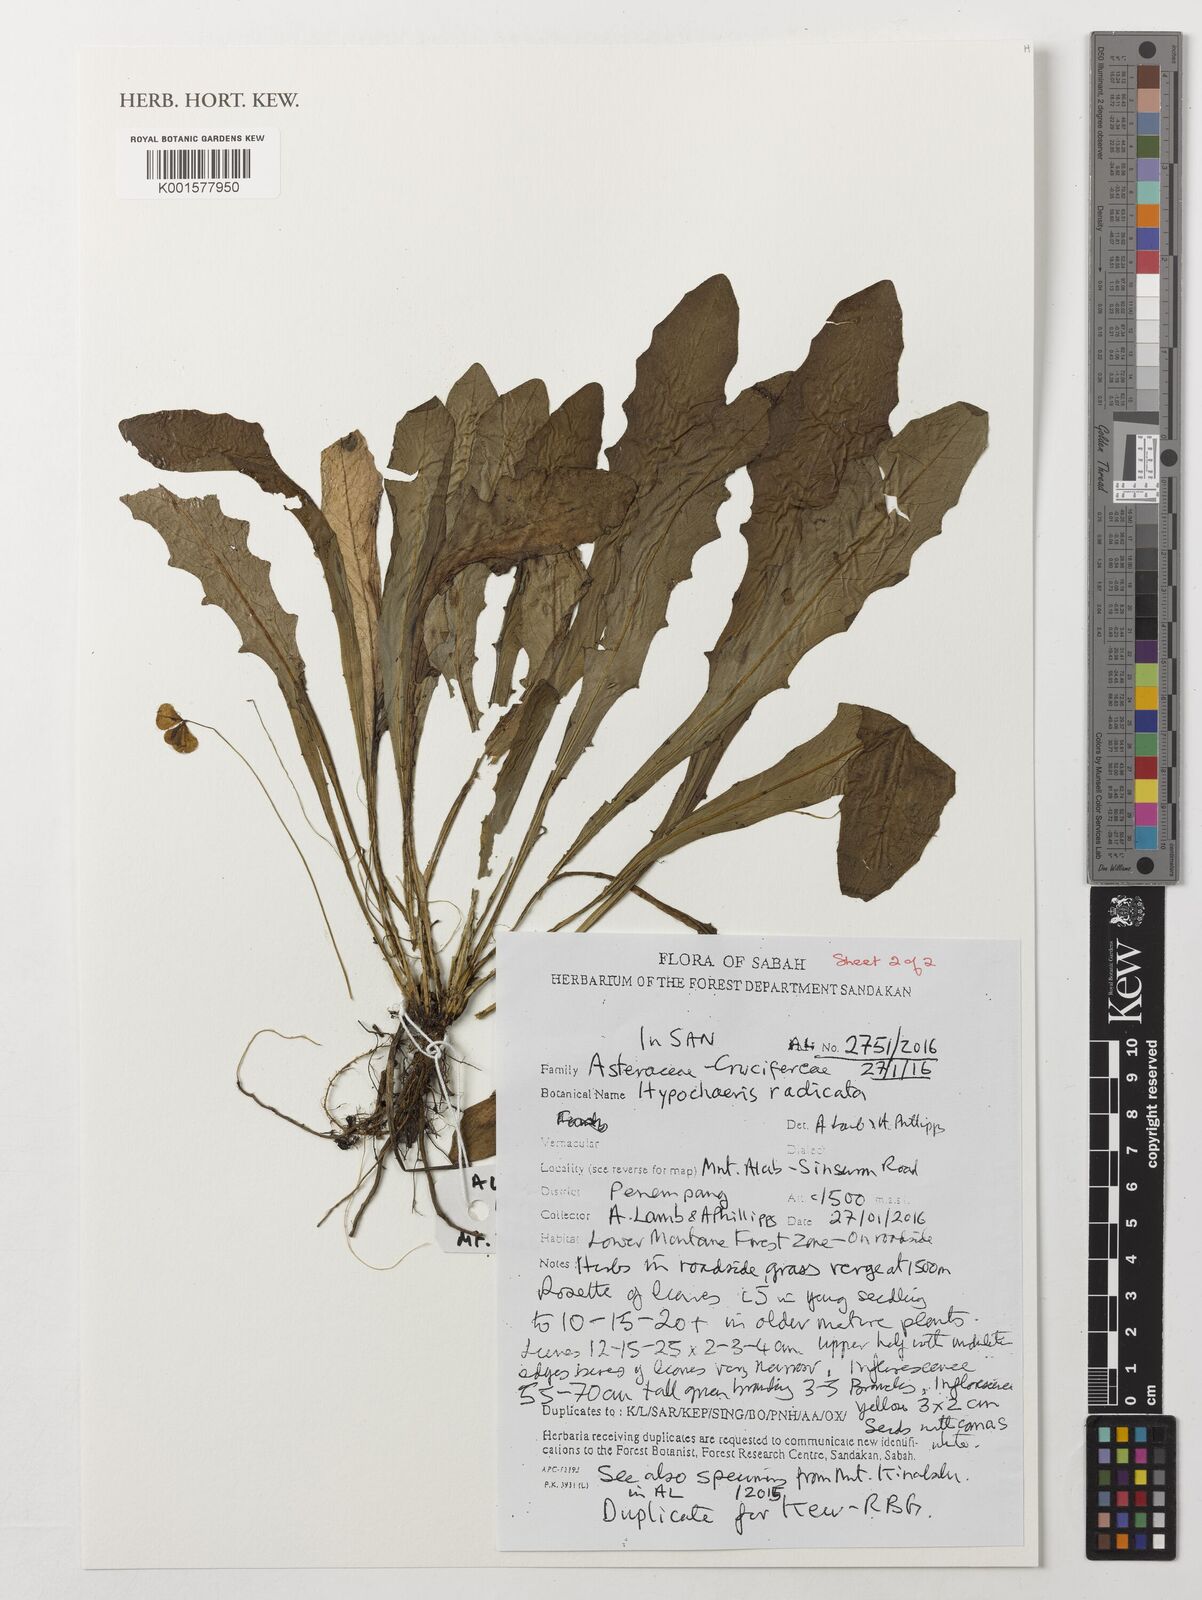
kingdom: Plantae
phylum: Tracheophyta
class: Magnoliopsida
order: Asterales
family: Asteraceae
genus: Hypochaeris
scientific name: Hypochaeris radicata
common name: Flatweed
